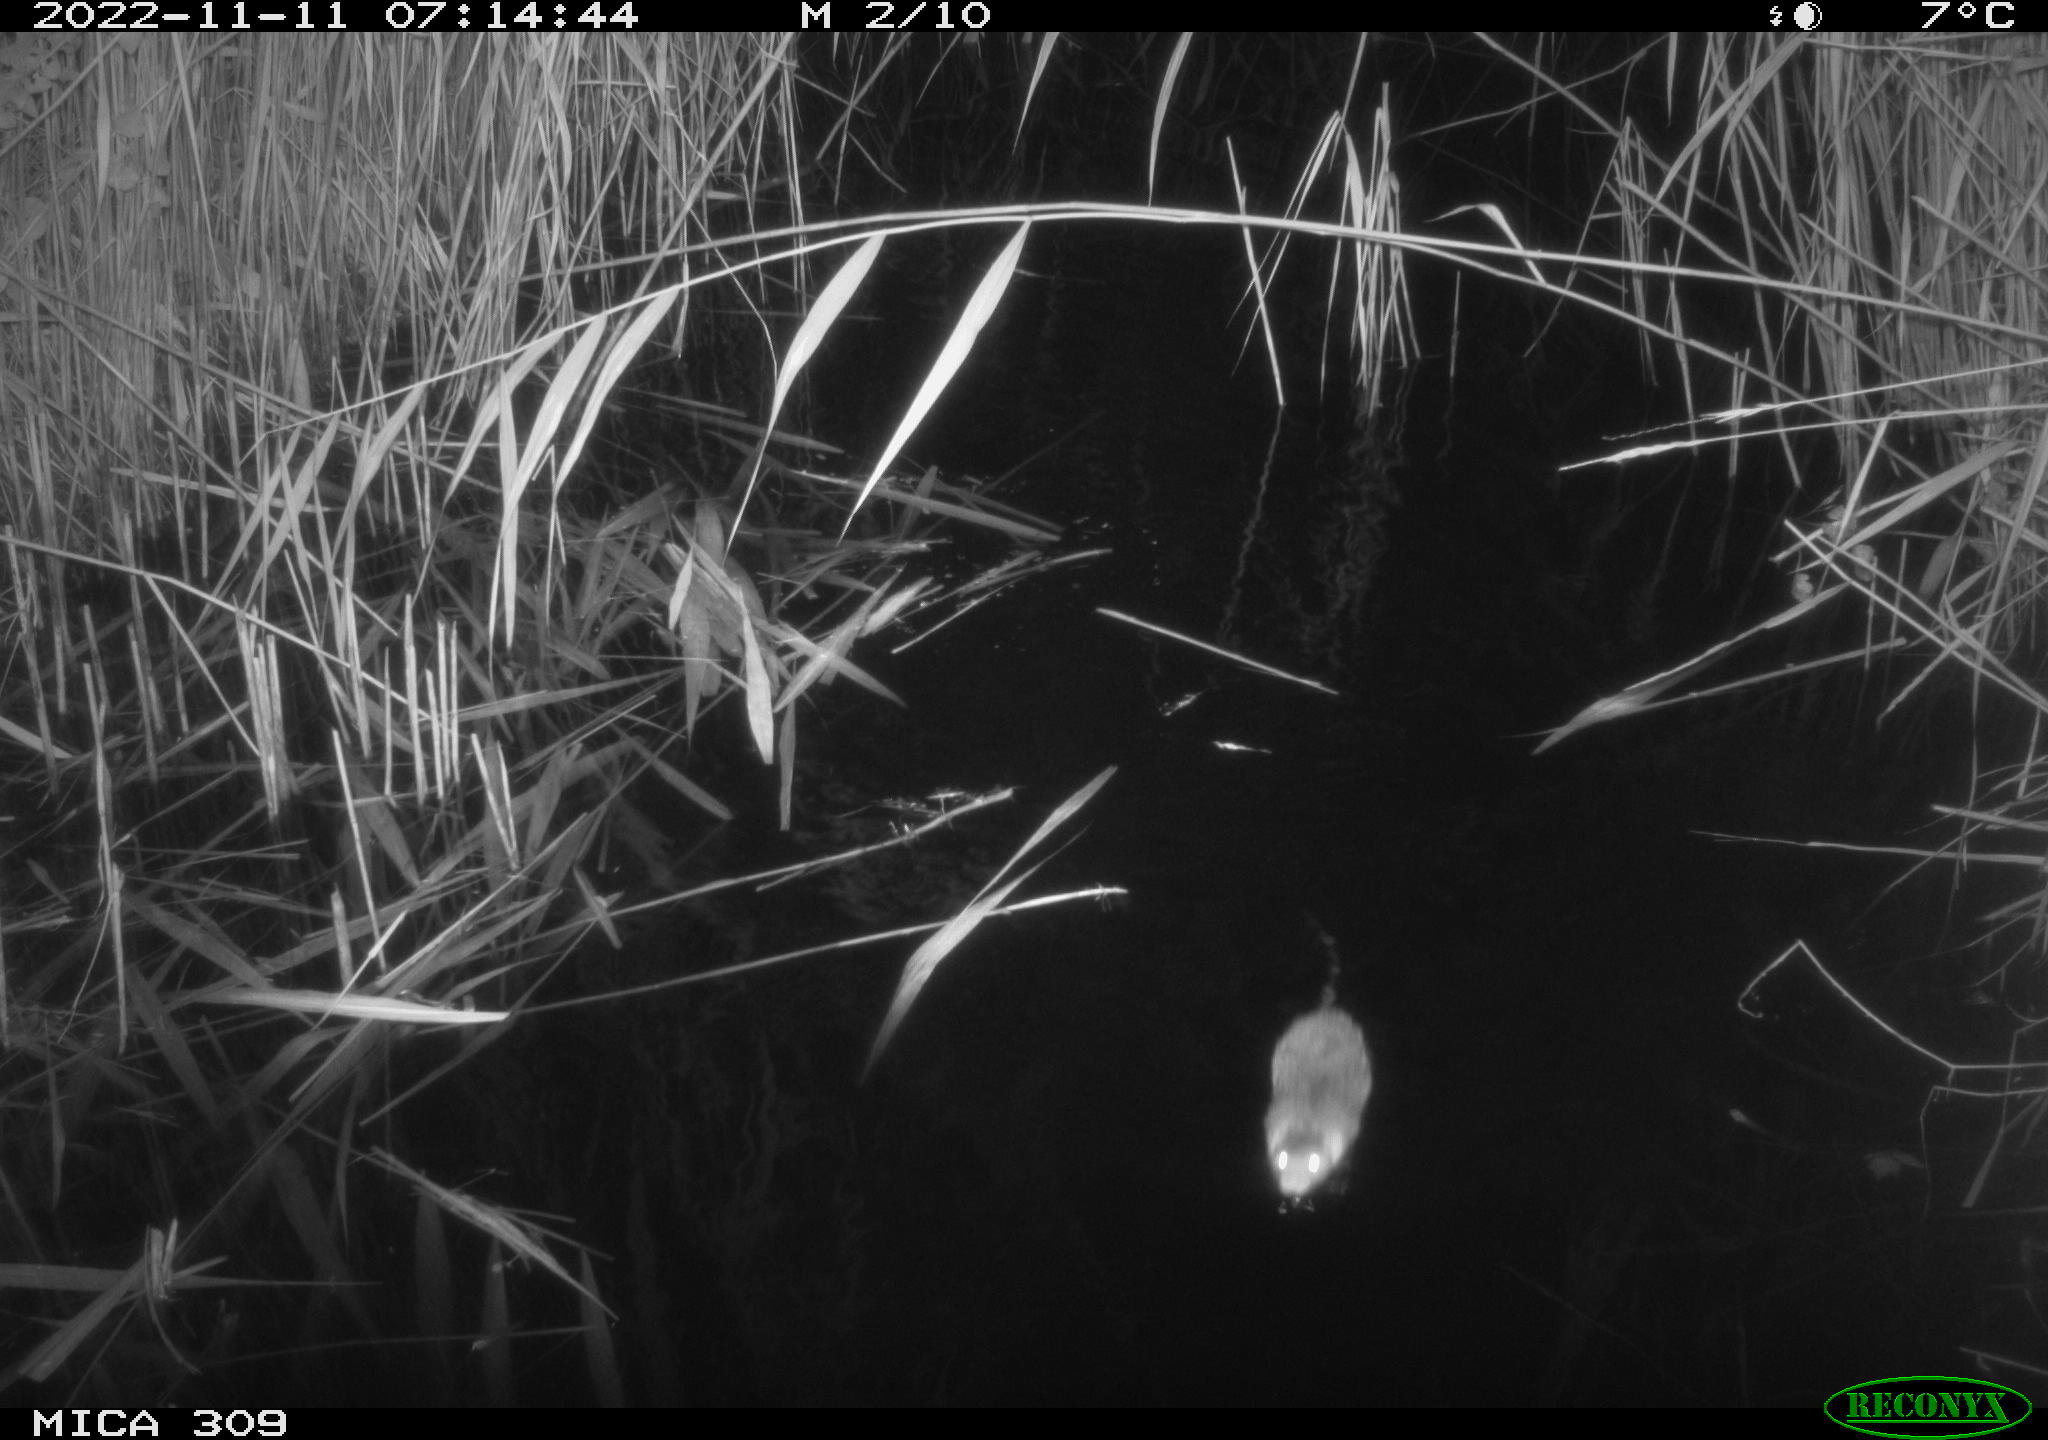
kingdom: Animalia
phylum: Chordata
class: Mammalia
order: Rodentia
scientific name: Rodentia
